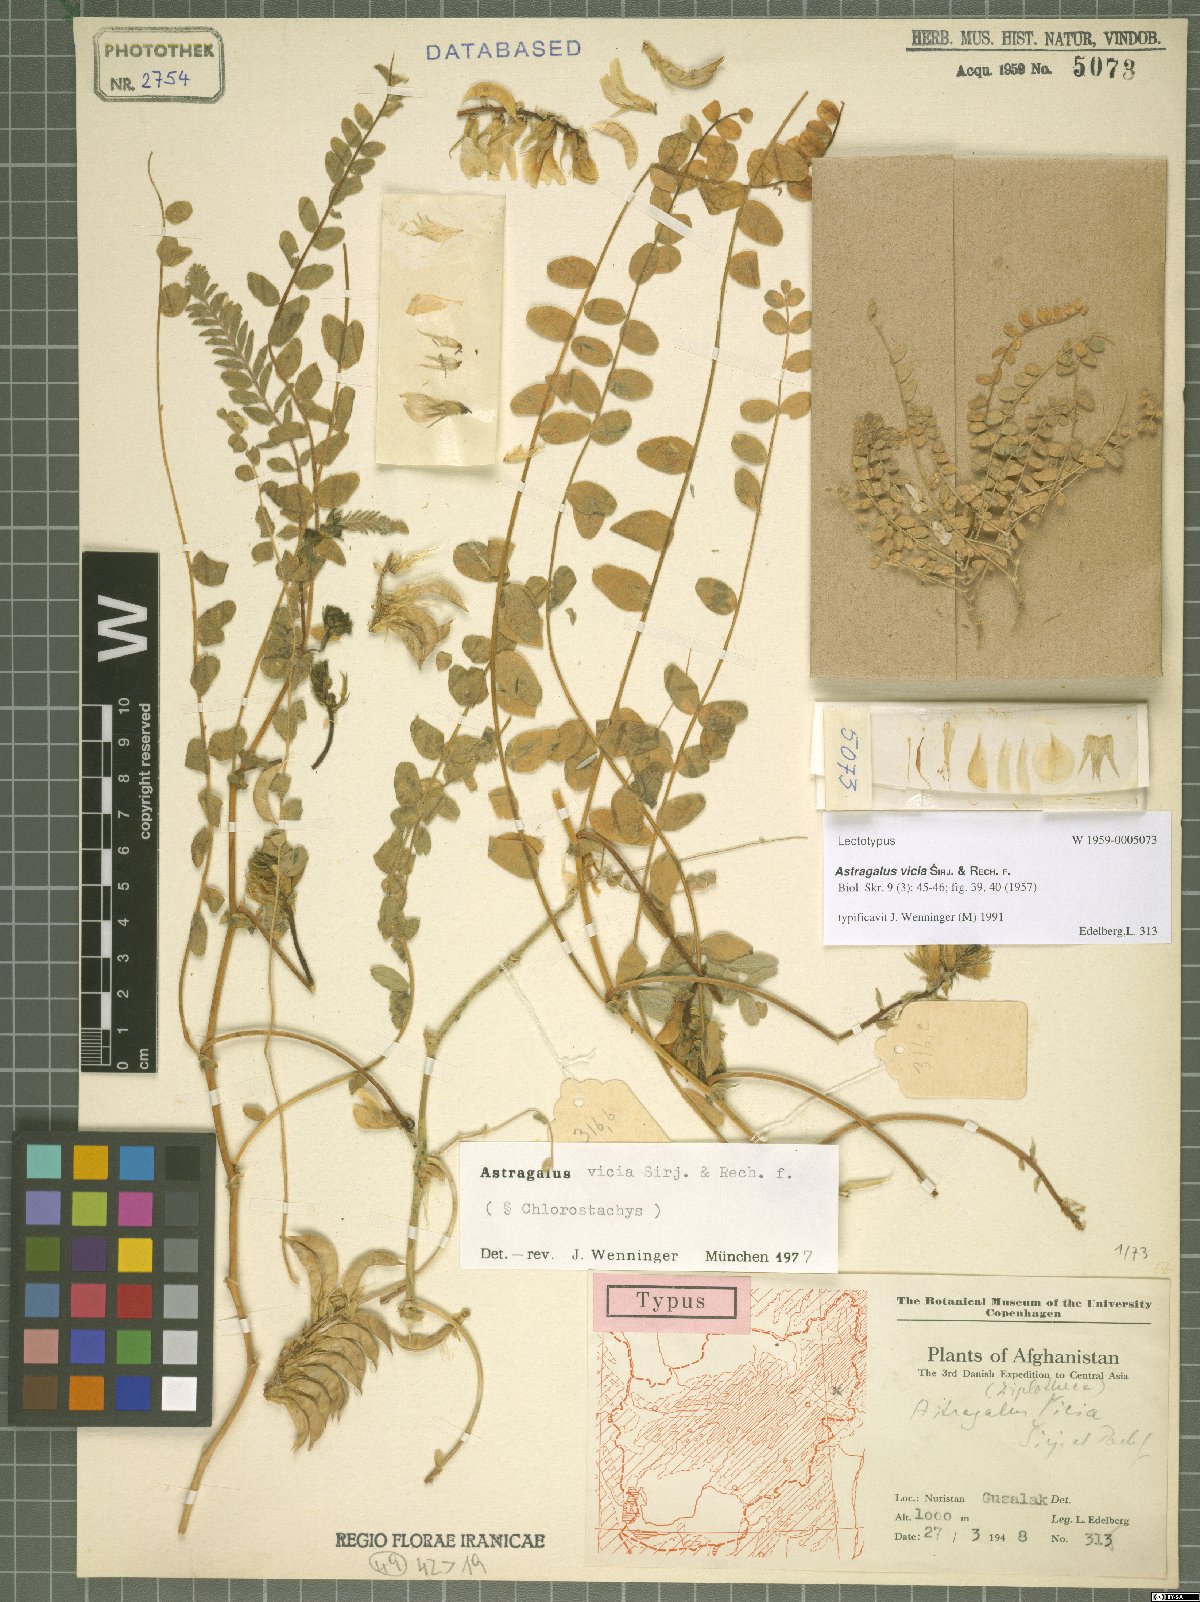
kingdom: Plantae
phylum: Tracheophyta
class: Magnoliopsida
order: Fabales
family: Fabaceae
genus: Astragalus
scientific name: Astragalus vicia
